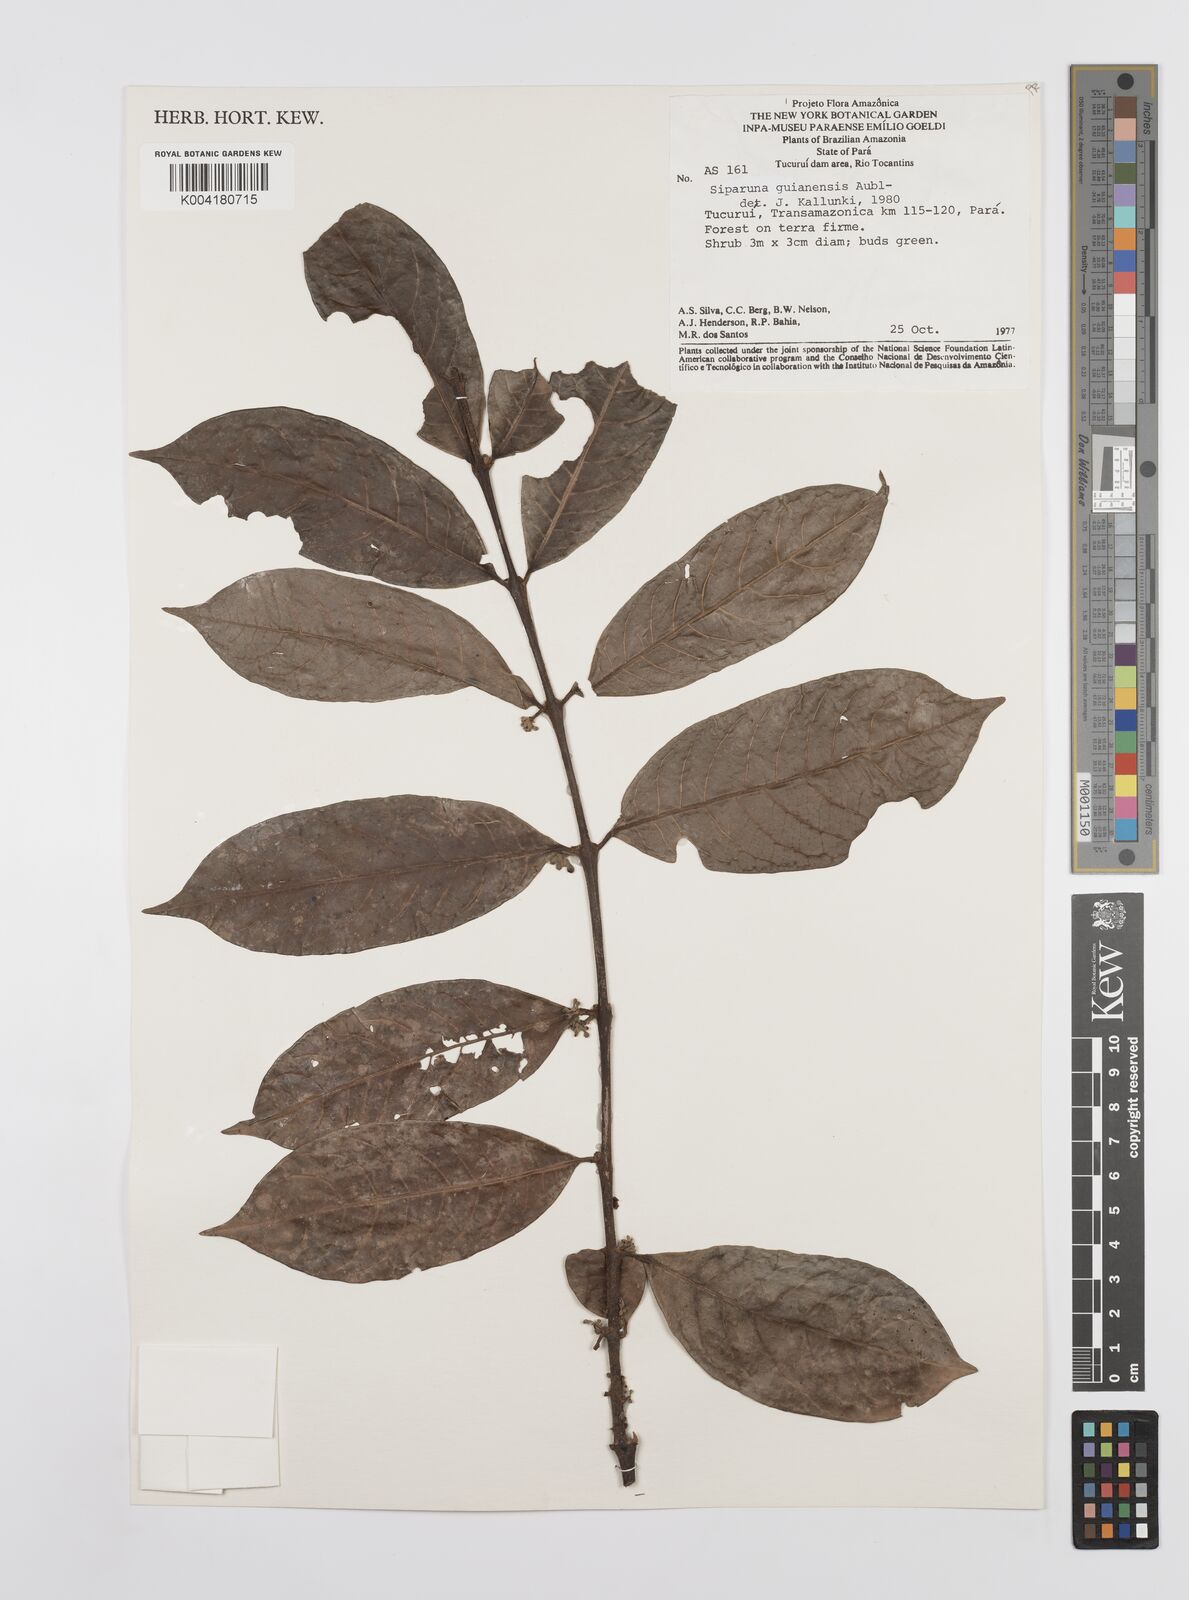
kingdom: Plantae
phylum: Tracheophyta
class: Magnoliopsida
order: Laurales
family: Siparunaceae
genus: Siparuna
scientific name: Siparuna guianensis
